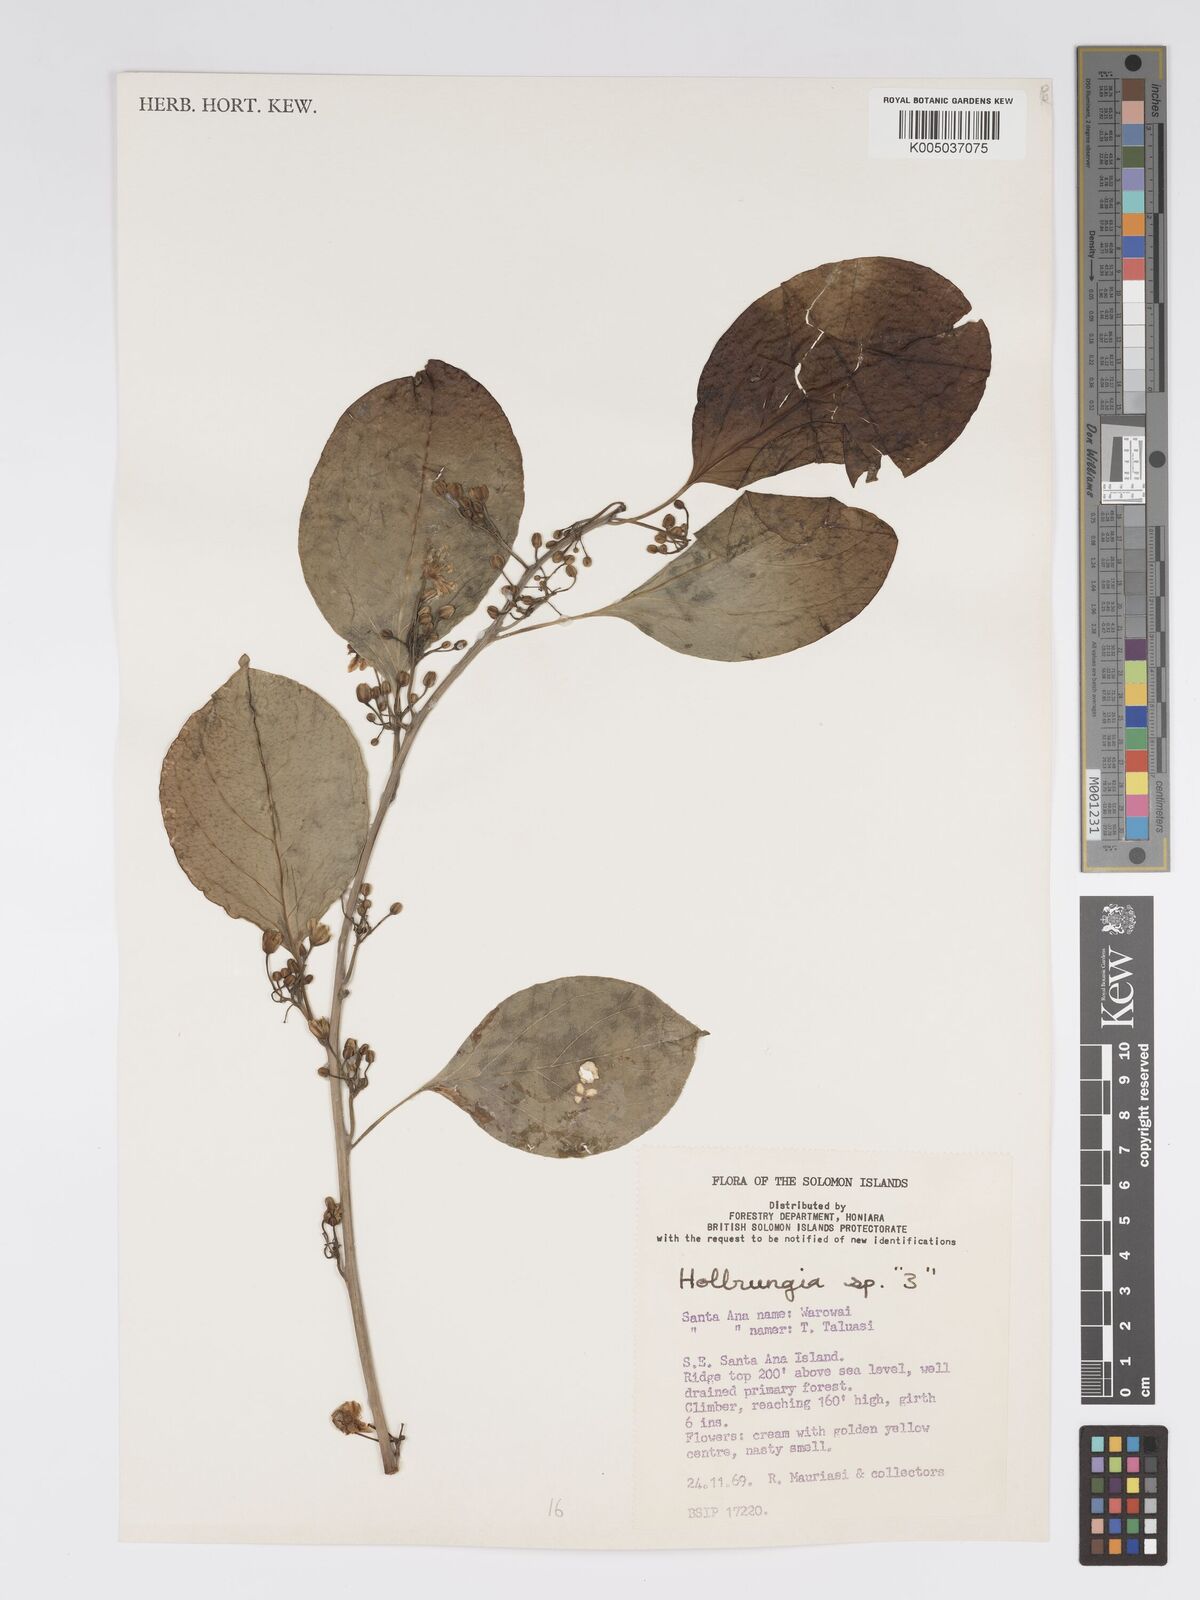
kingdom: Plantae
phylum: Tracheophyta
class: Magnoliopsida
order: Malpighiales
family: Passifloraceae
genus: Passiflora
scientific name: Passiflora aurantioides
